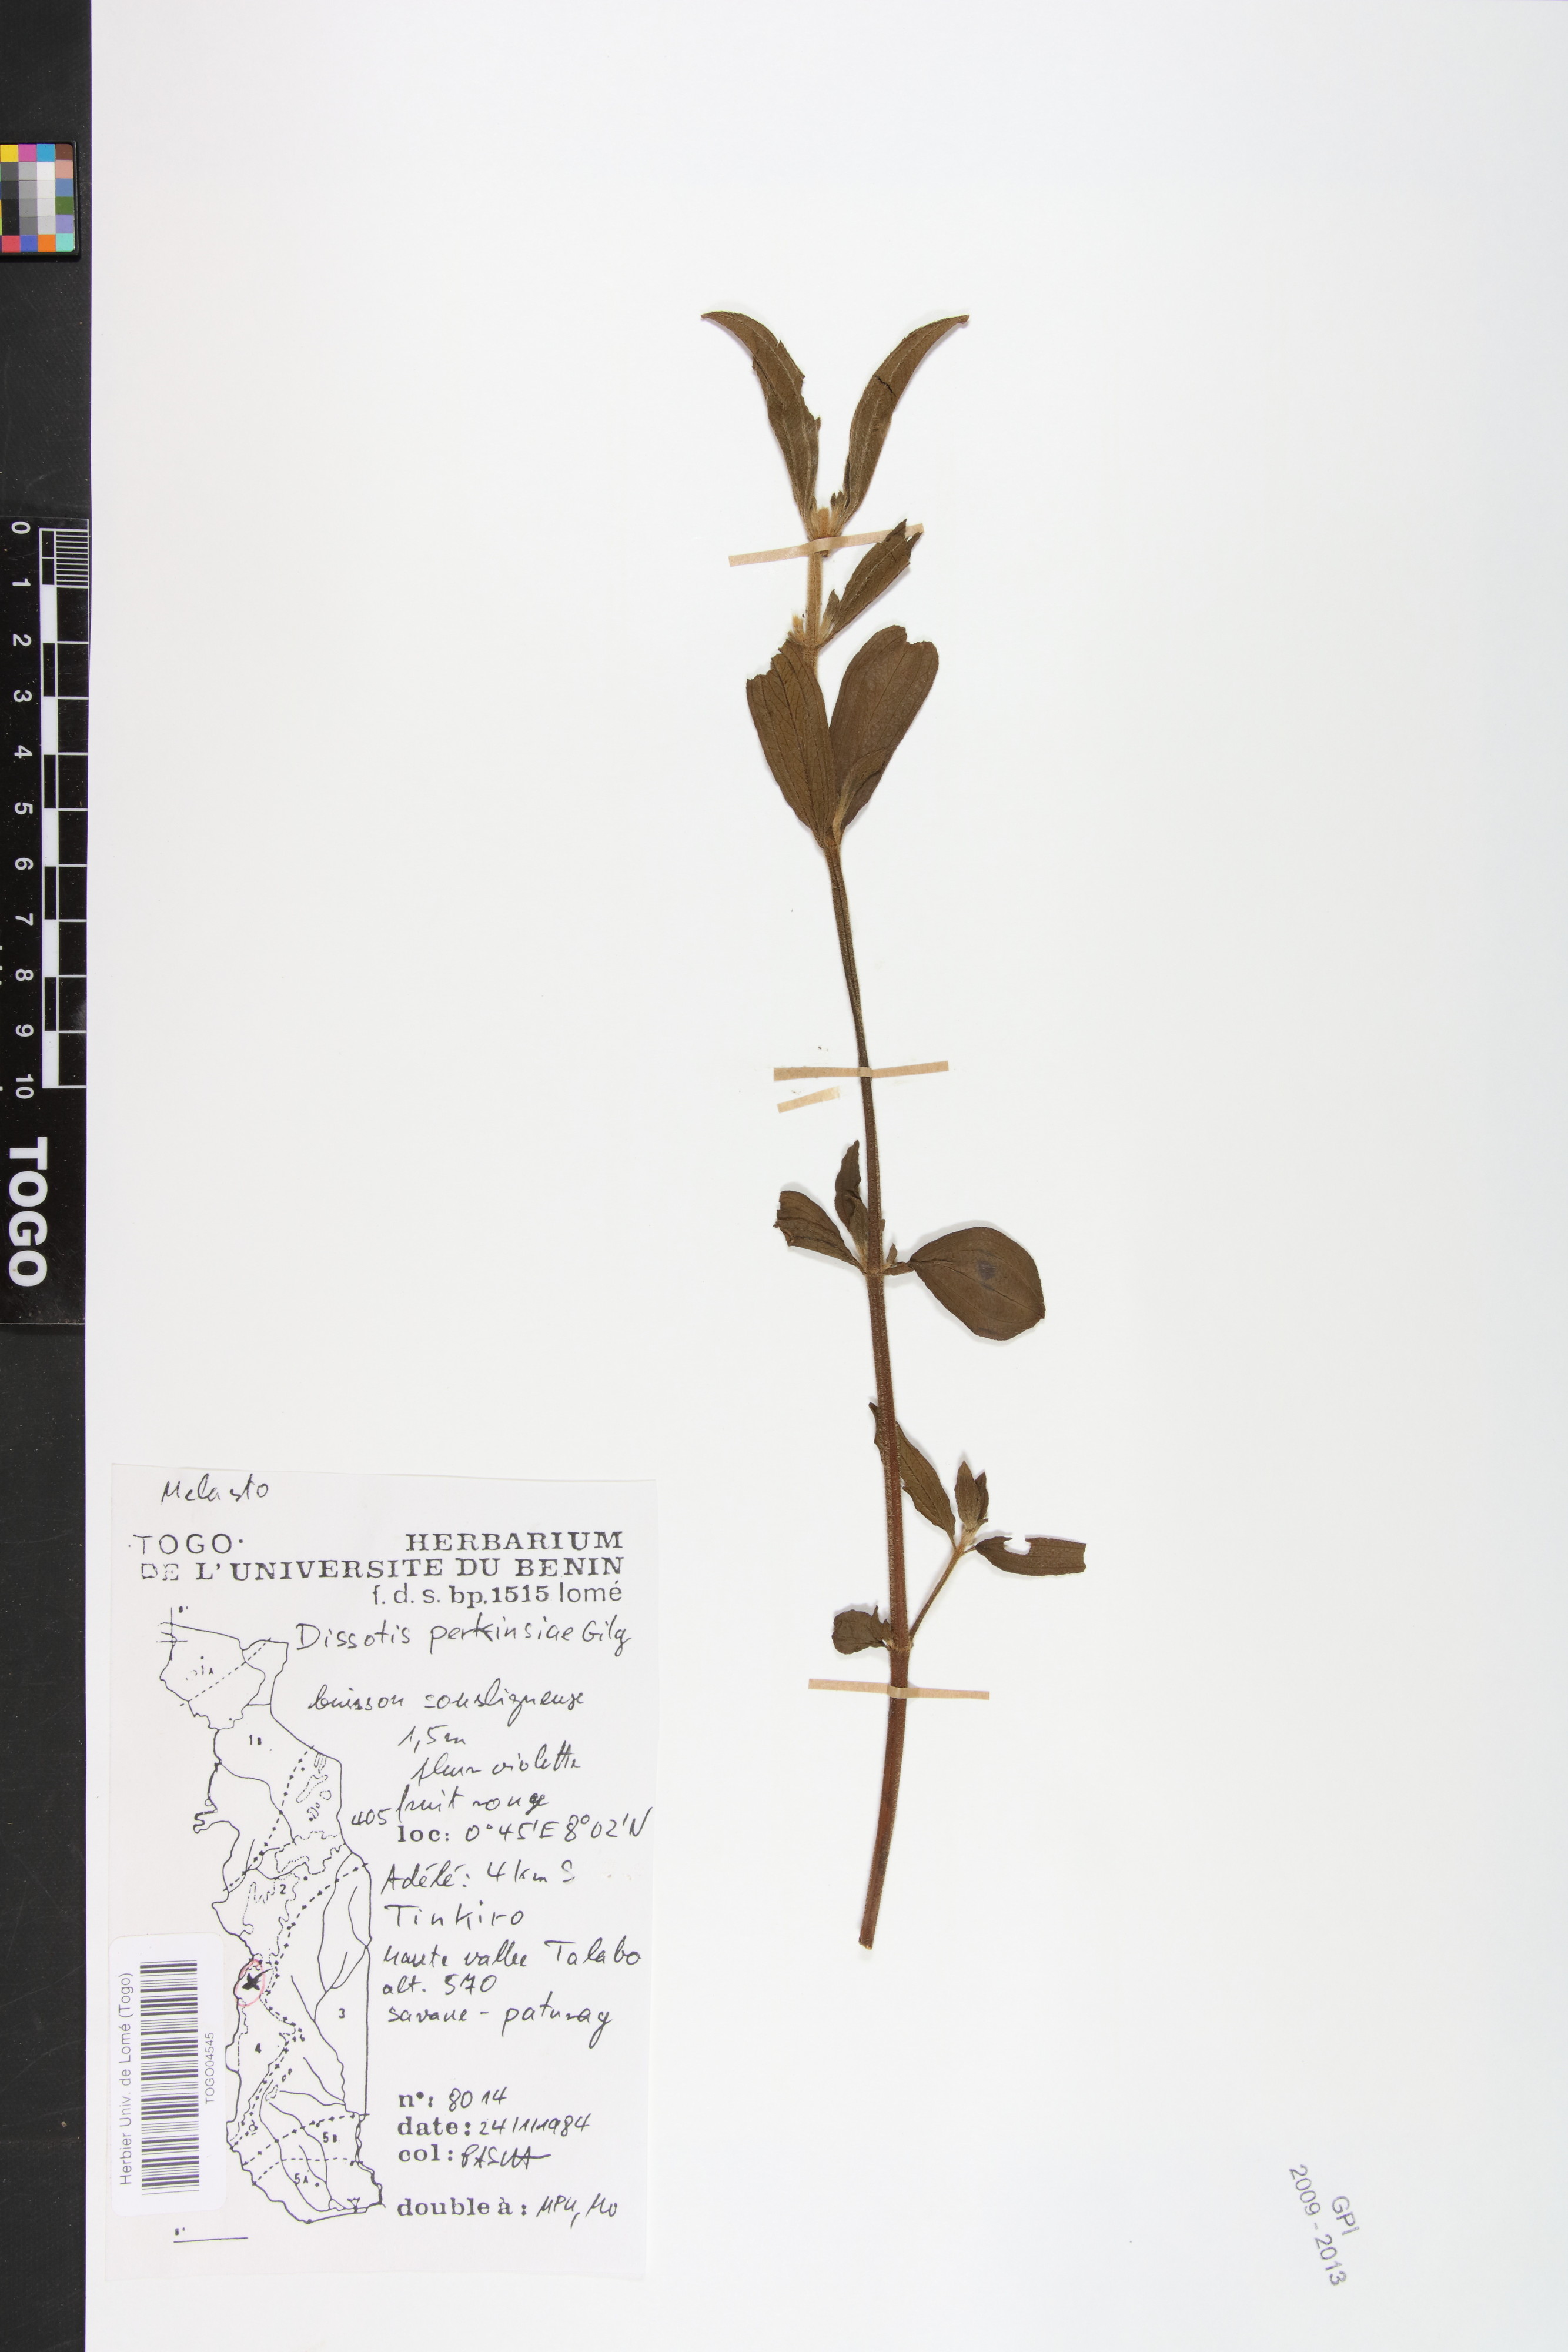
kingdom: Plantae
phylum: Tracheophyta
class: Magnoliopsida
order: Myrtales
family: Melastomataceae
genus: Feliciotis
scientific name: Feliciotis perkinsiae
